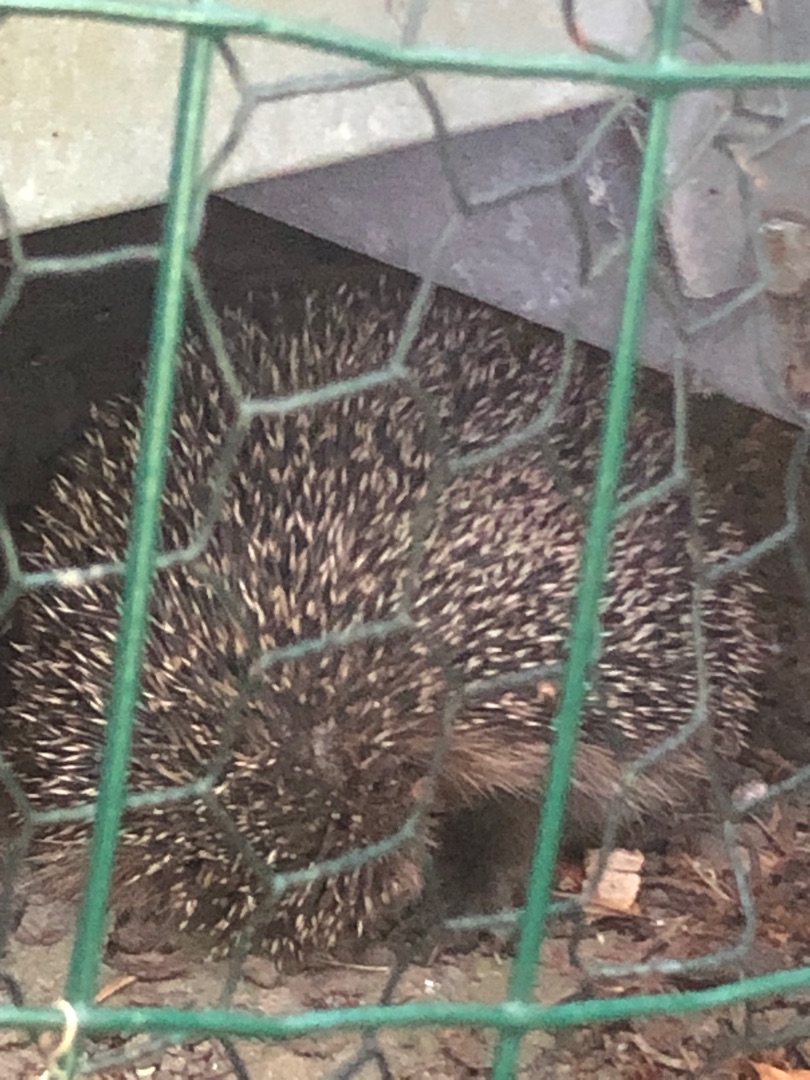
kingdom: Animalia
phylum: Chordata
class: Mammalia
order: Erinaceomorpha
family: Erinaceidae
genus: Erinaceus
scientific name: Erinaceus europaeus
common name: Pindsvin
